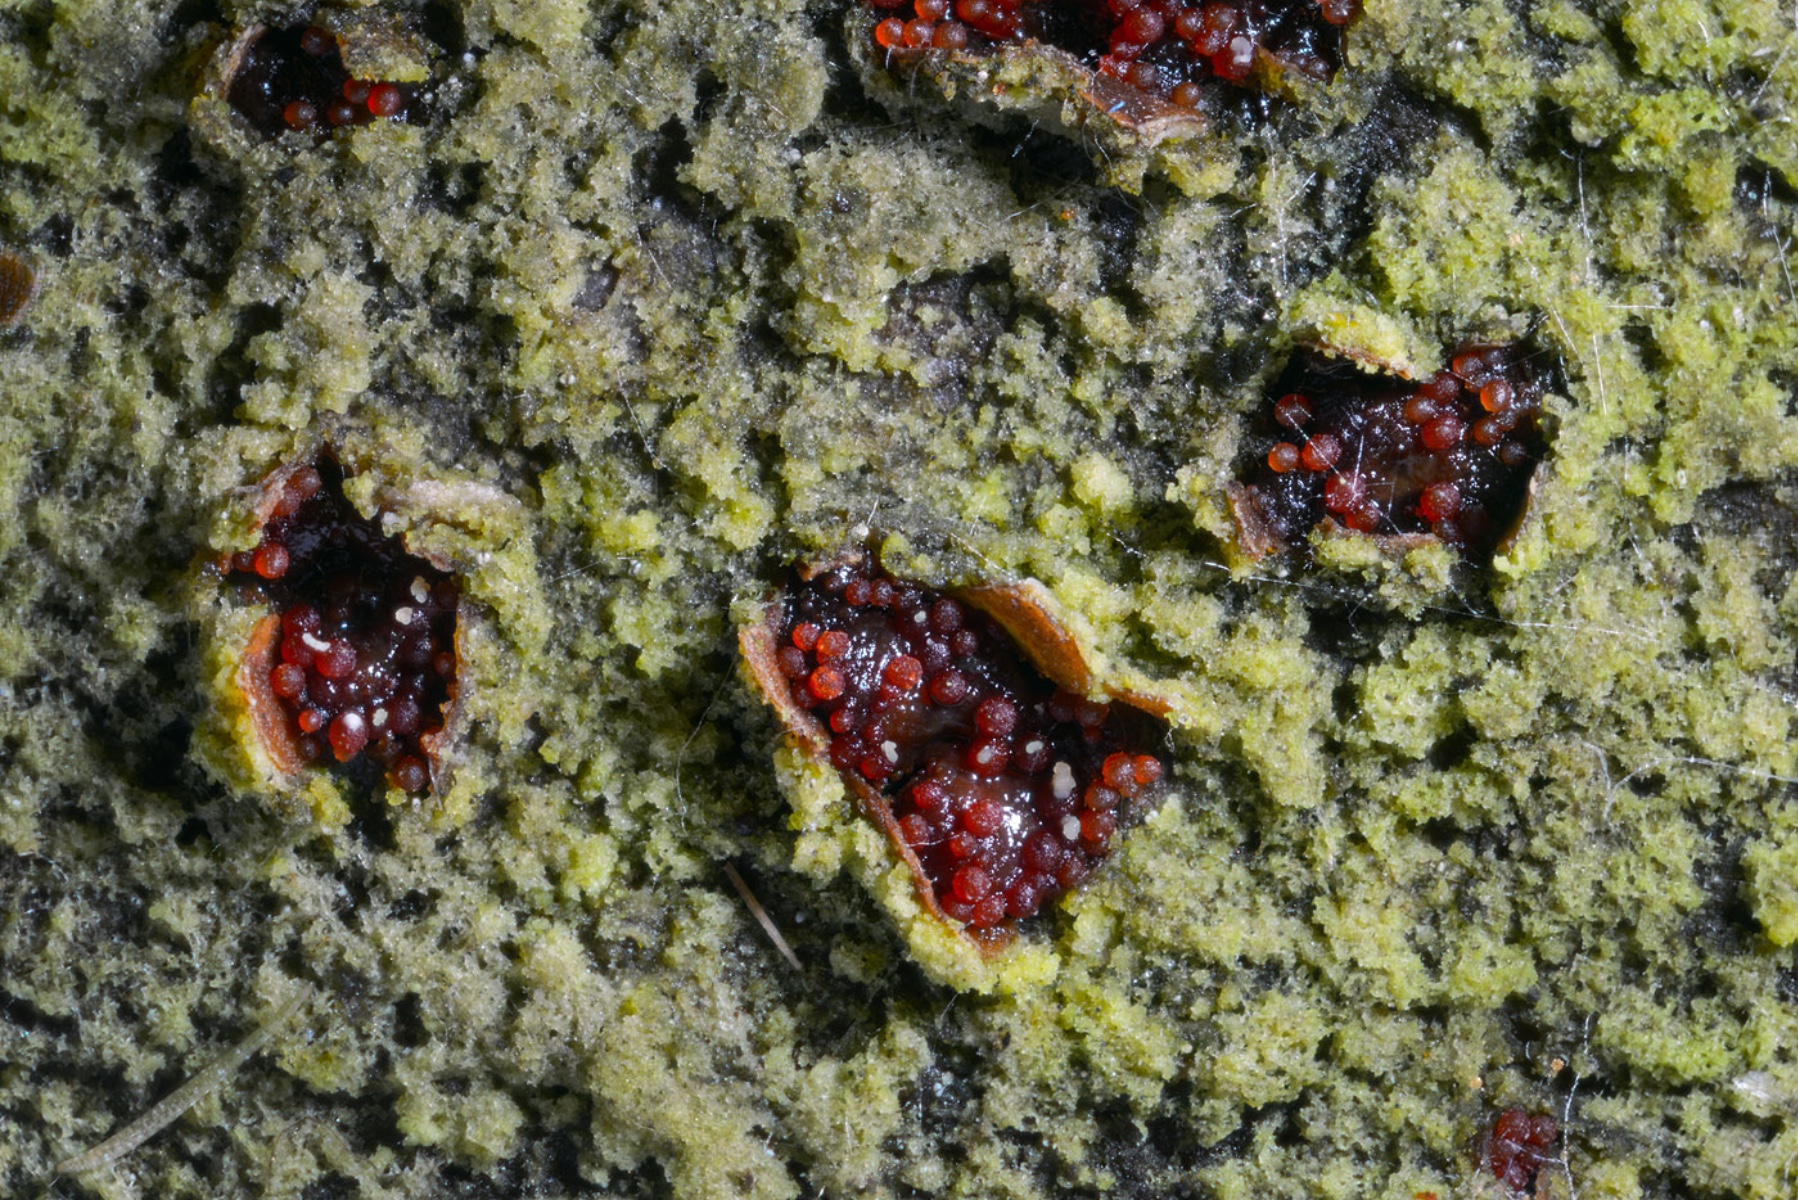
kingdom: Fungi
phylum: Ascomycota
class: Sordariomycetes
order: Hypocreales
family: Nectriaceae
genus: Neonectria
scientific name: Neonectria coccinea
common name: bøgebark-cinnobersvamp
